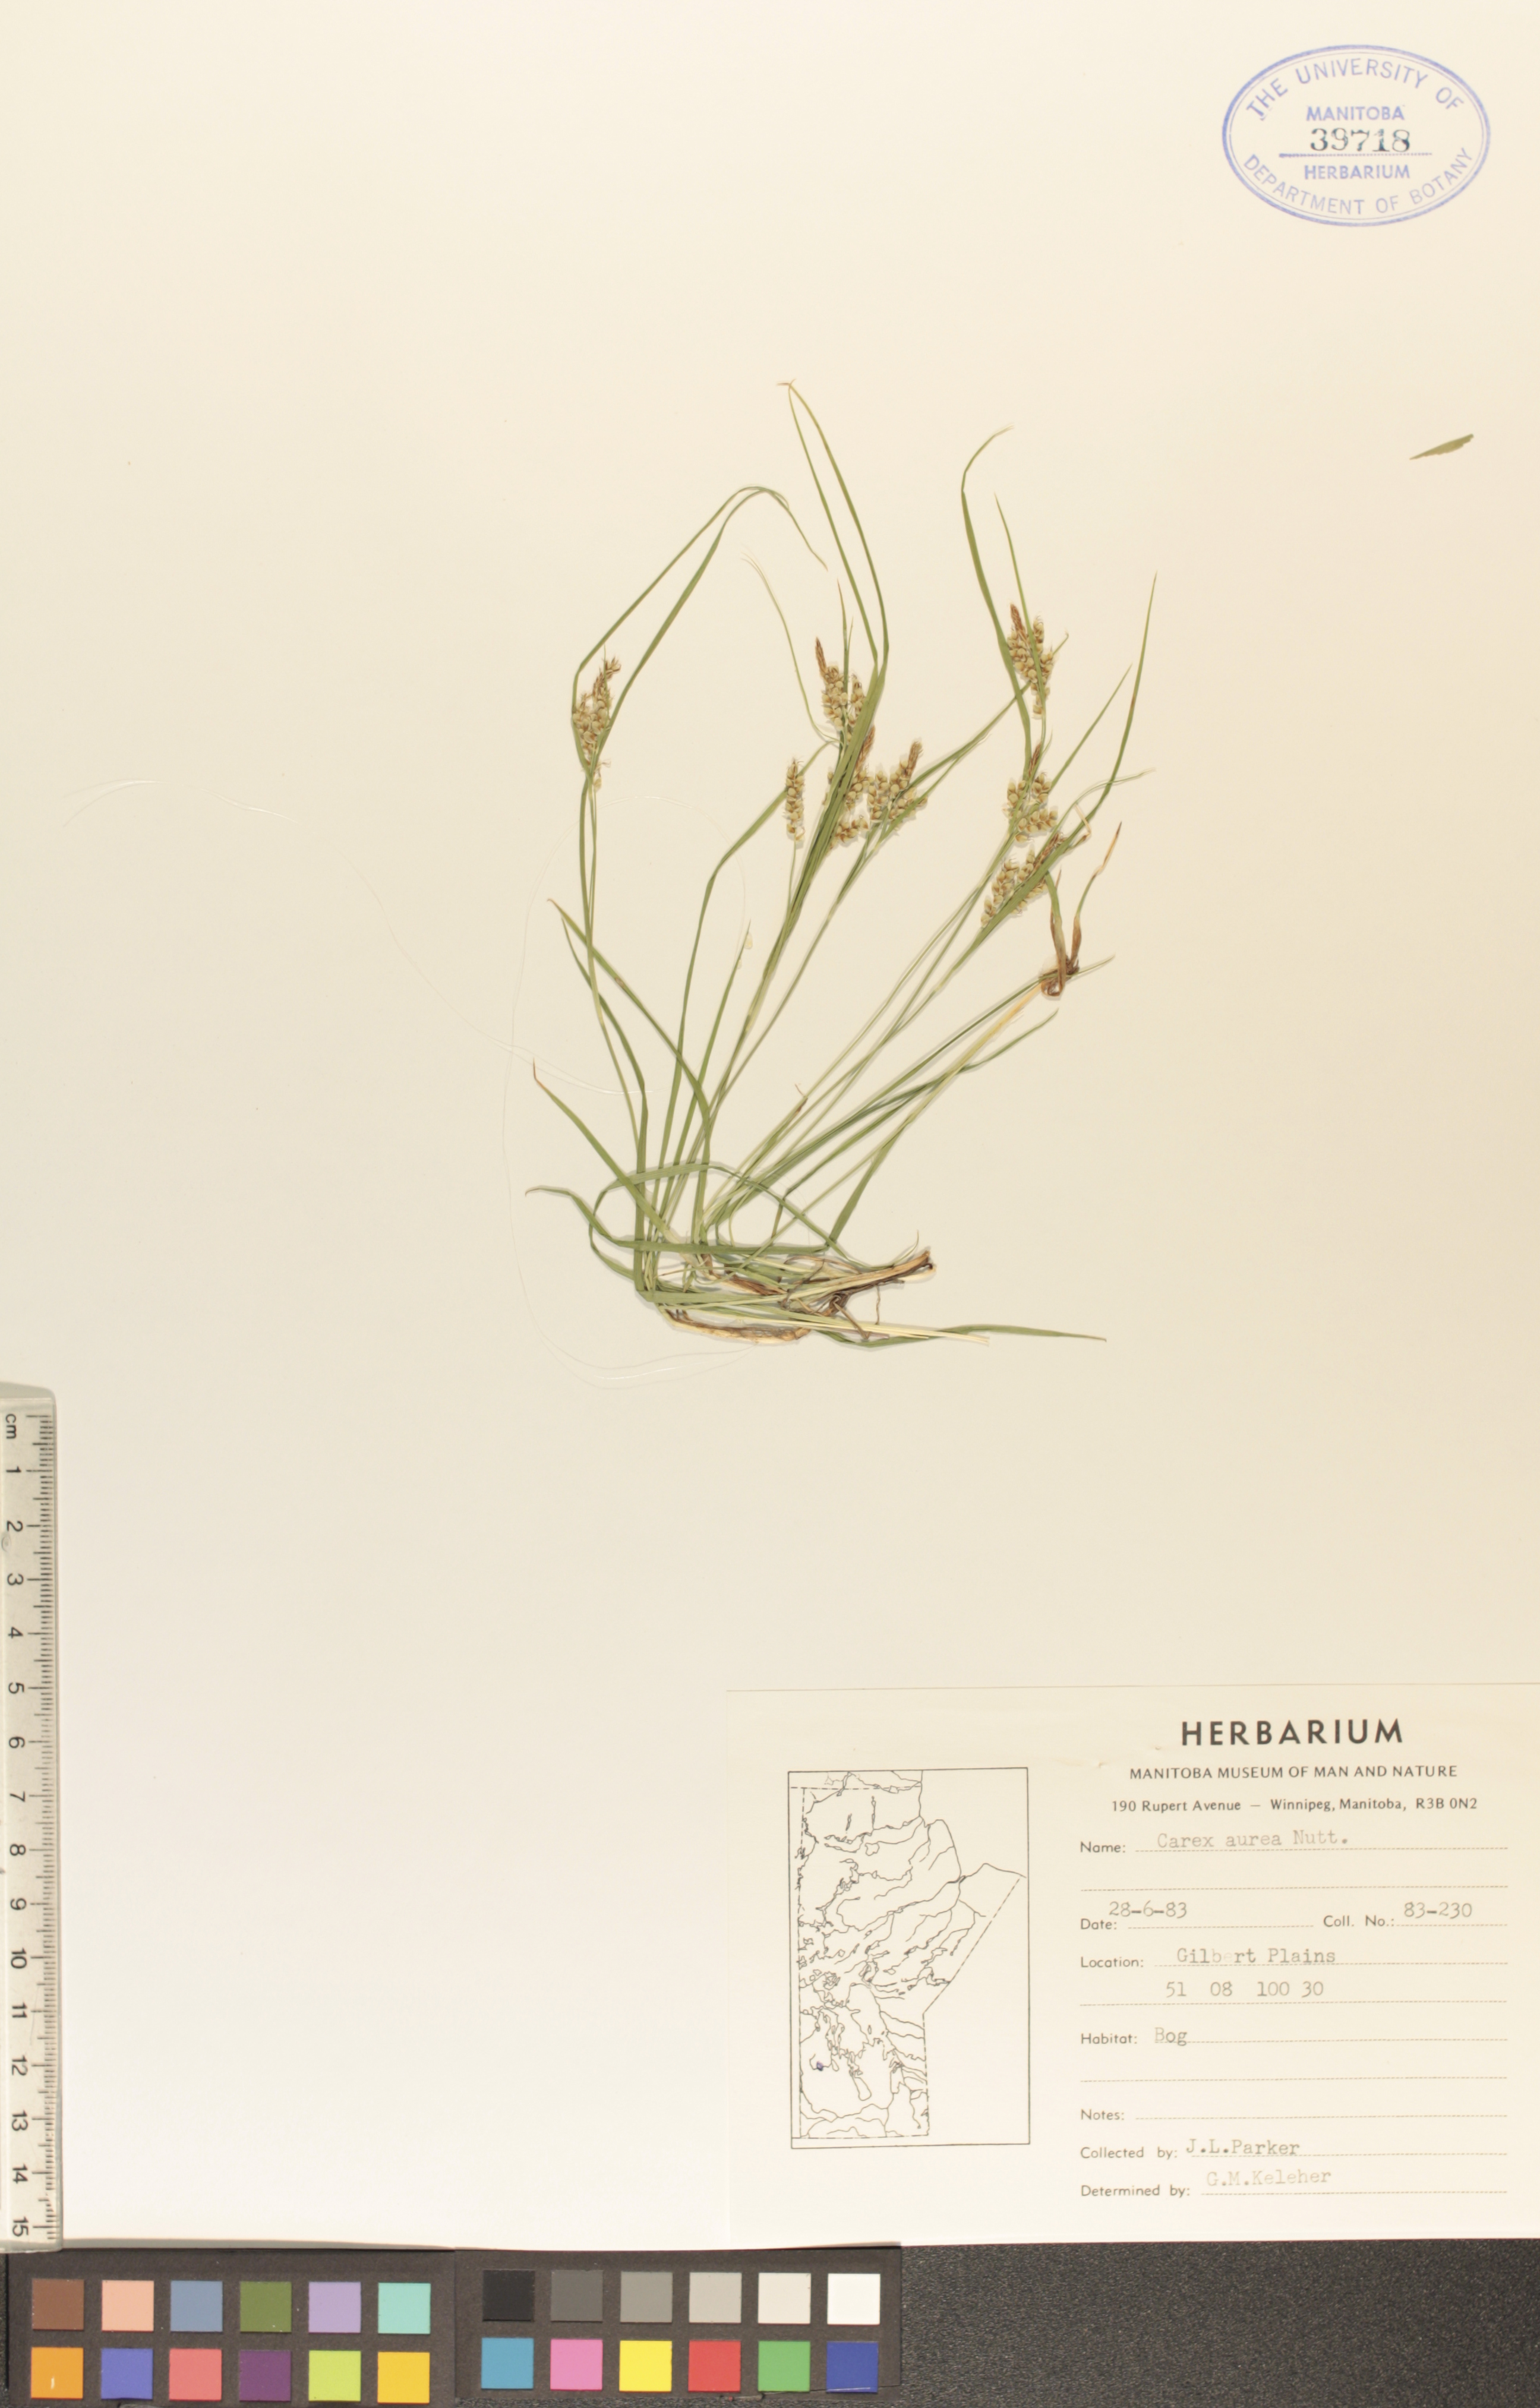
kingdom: Plantae
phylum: Tracheophyta
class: Liliopsida
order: Poales
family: Cyperaceae
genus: Carex
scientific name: Carex aurea
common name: Golden sedge
